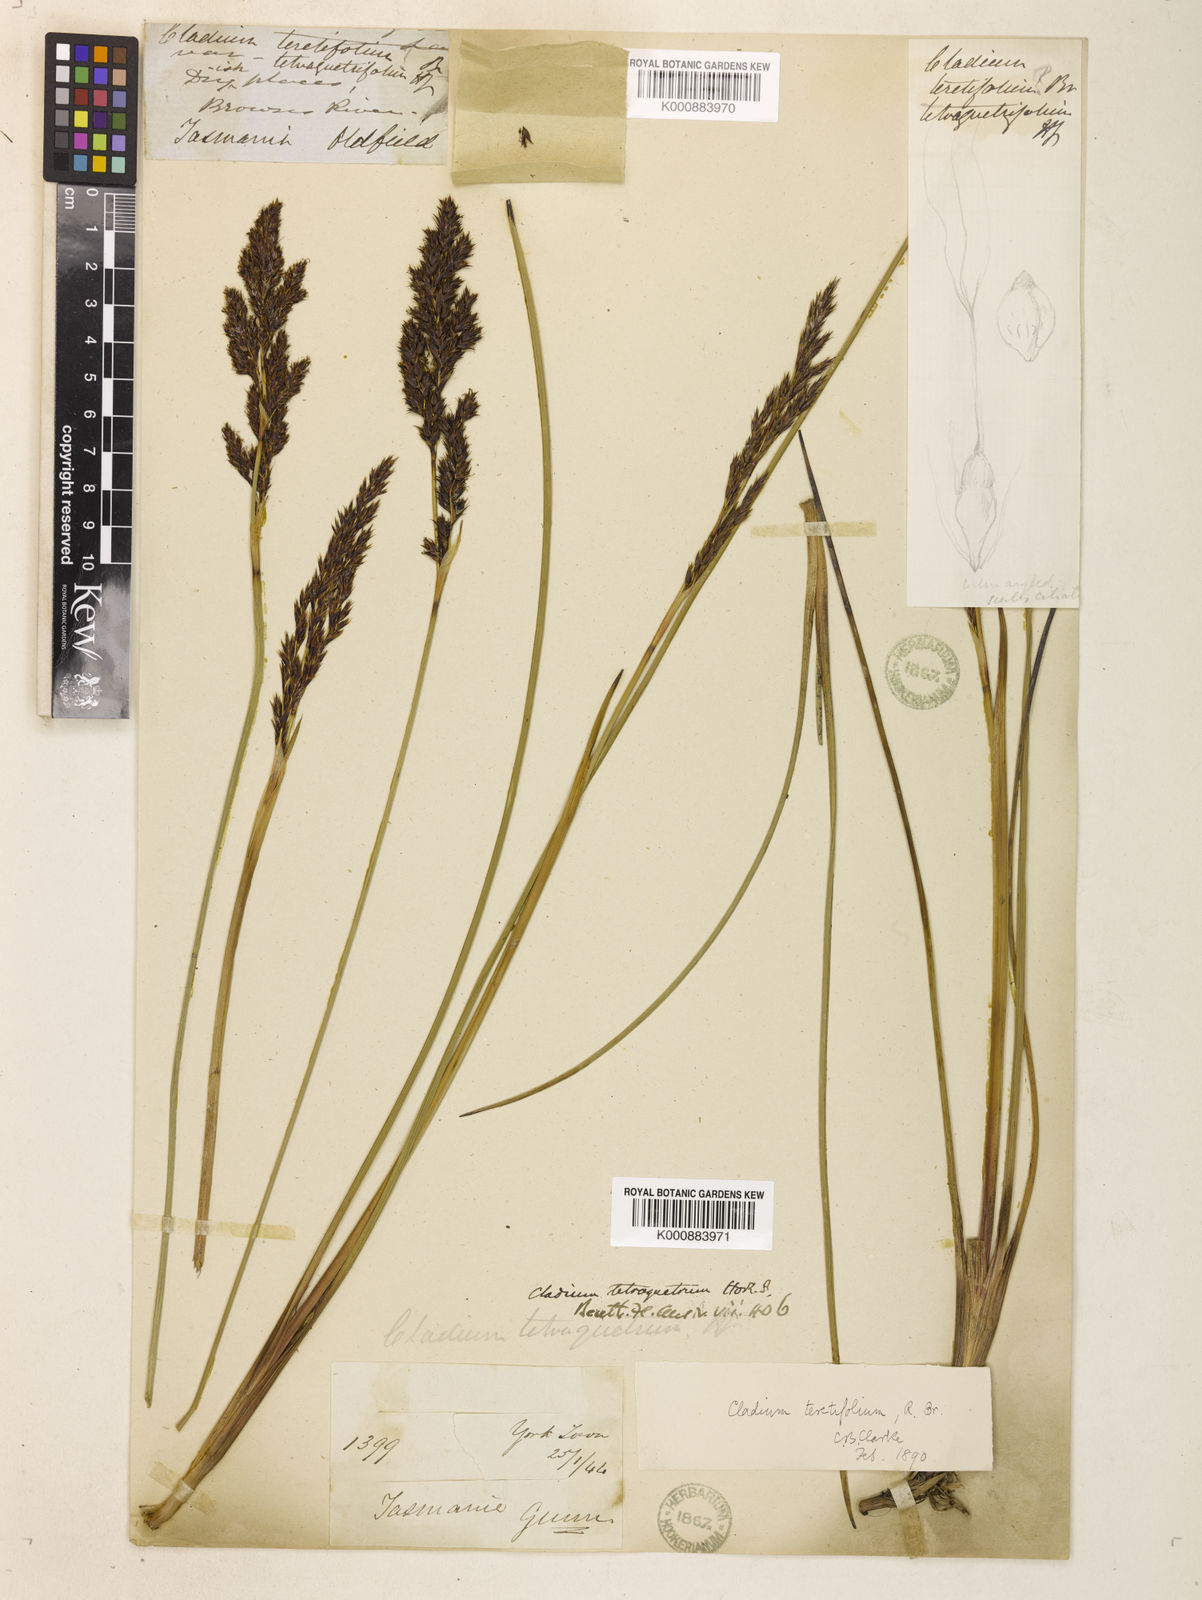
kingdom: Plantae
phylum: Tracheophyta
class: Liliopsida
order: Poales
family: Cyperaceae
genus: Machaerina
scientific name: Machaerina tetragona
